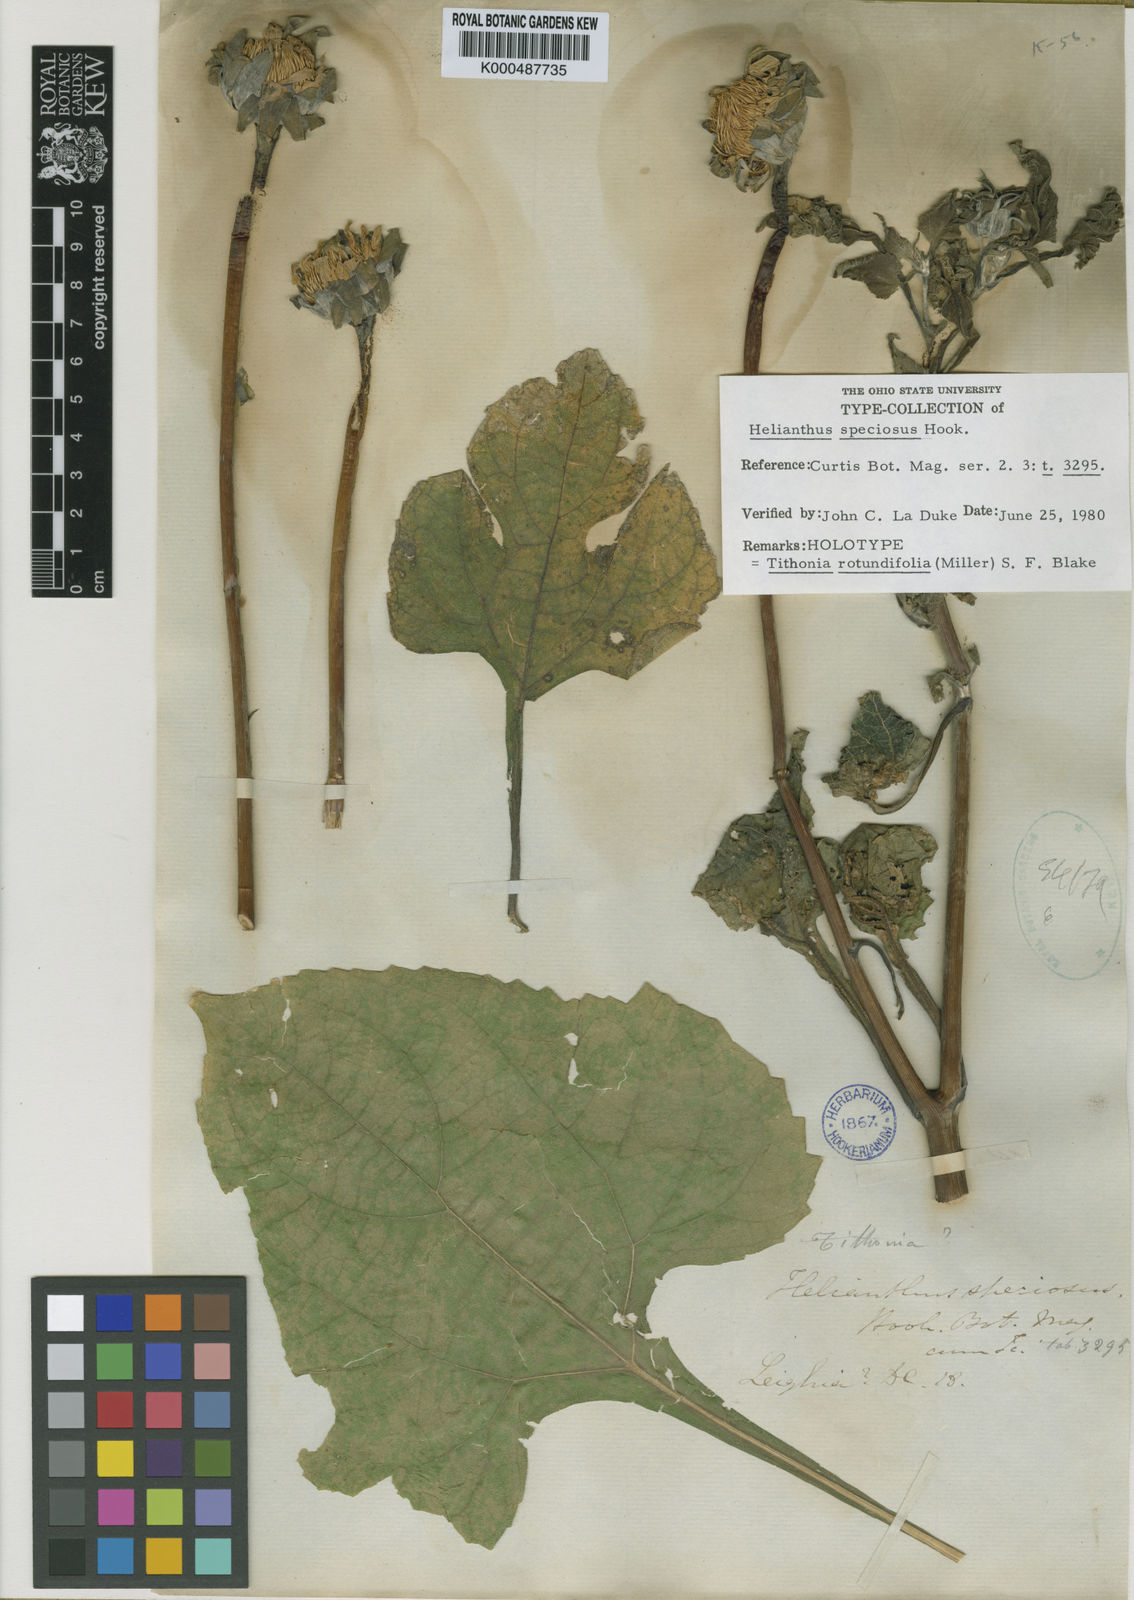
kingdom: Plantae
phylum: Tracheophyta
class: Magnoliopsida
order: Asterales
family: Asteraceae
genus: Tithonia
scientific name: Tithonia rotundifolia
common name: Sunflower
